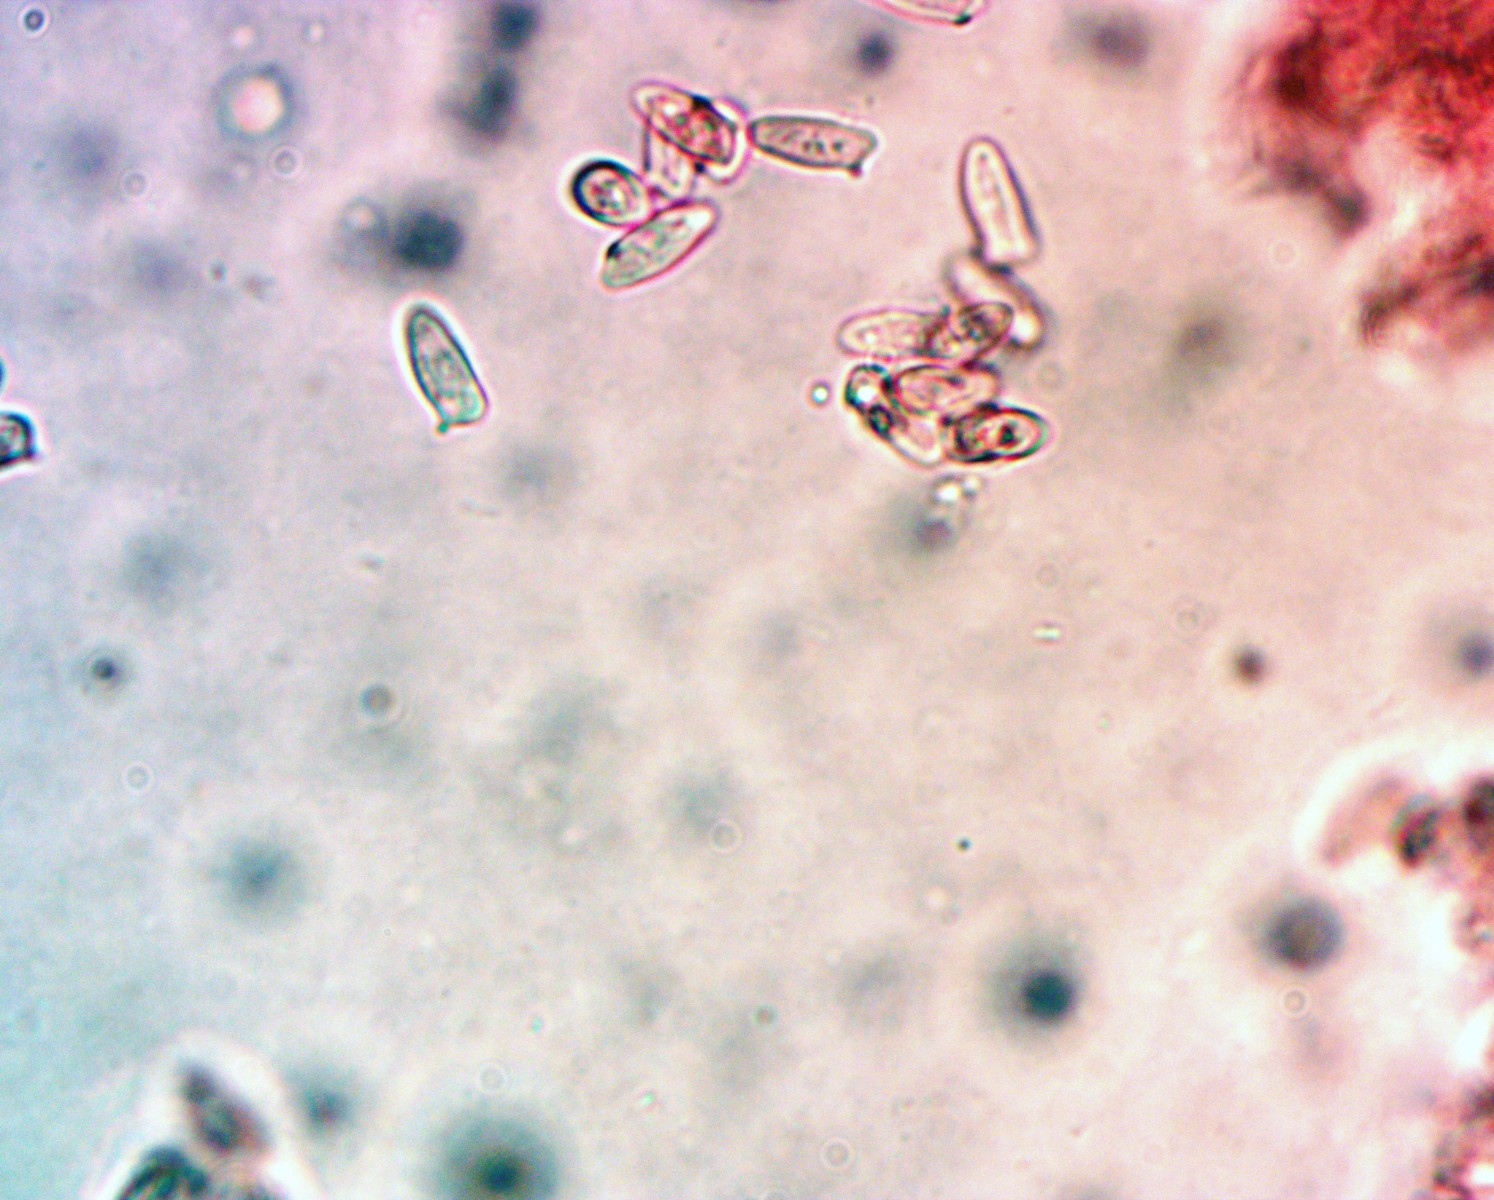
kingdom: Fungi
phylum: Basidiomycota
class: Agaricomycetes
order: Agaricales
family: Agaricaceae
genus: Lepiota
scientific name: Lepiota castanea
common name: kastaniebrun parasolhat
